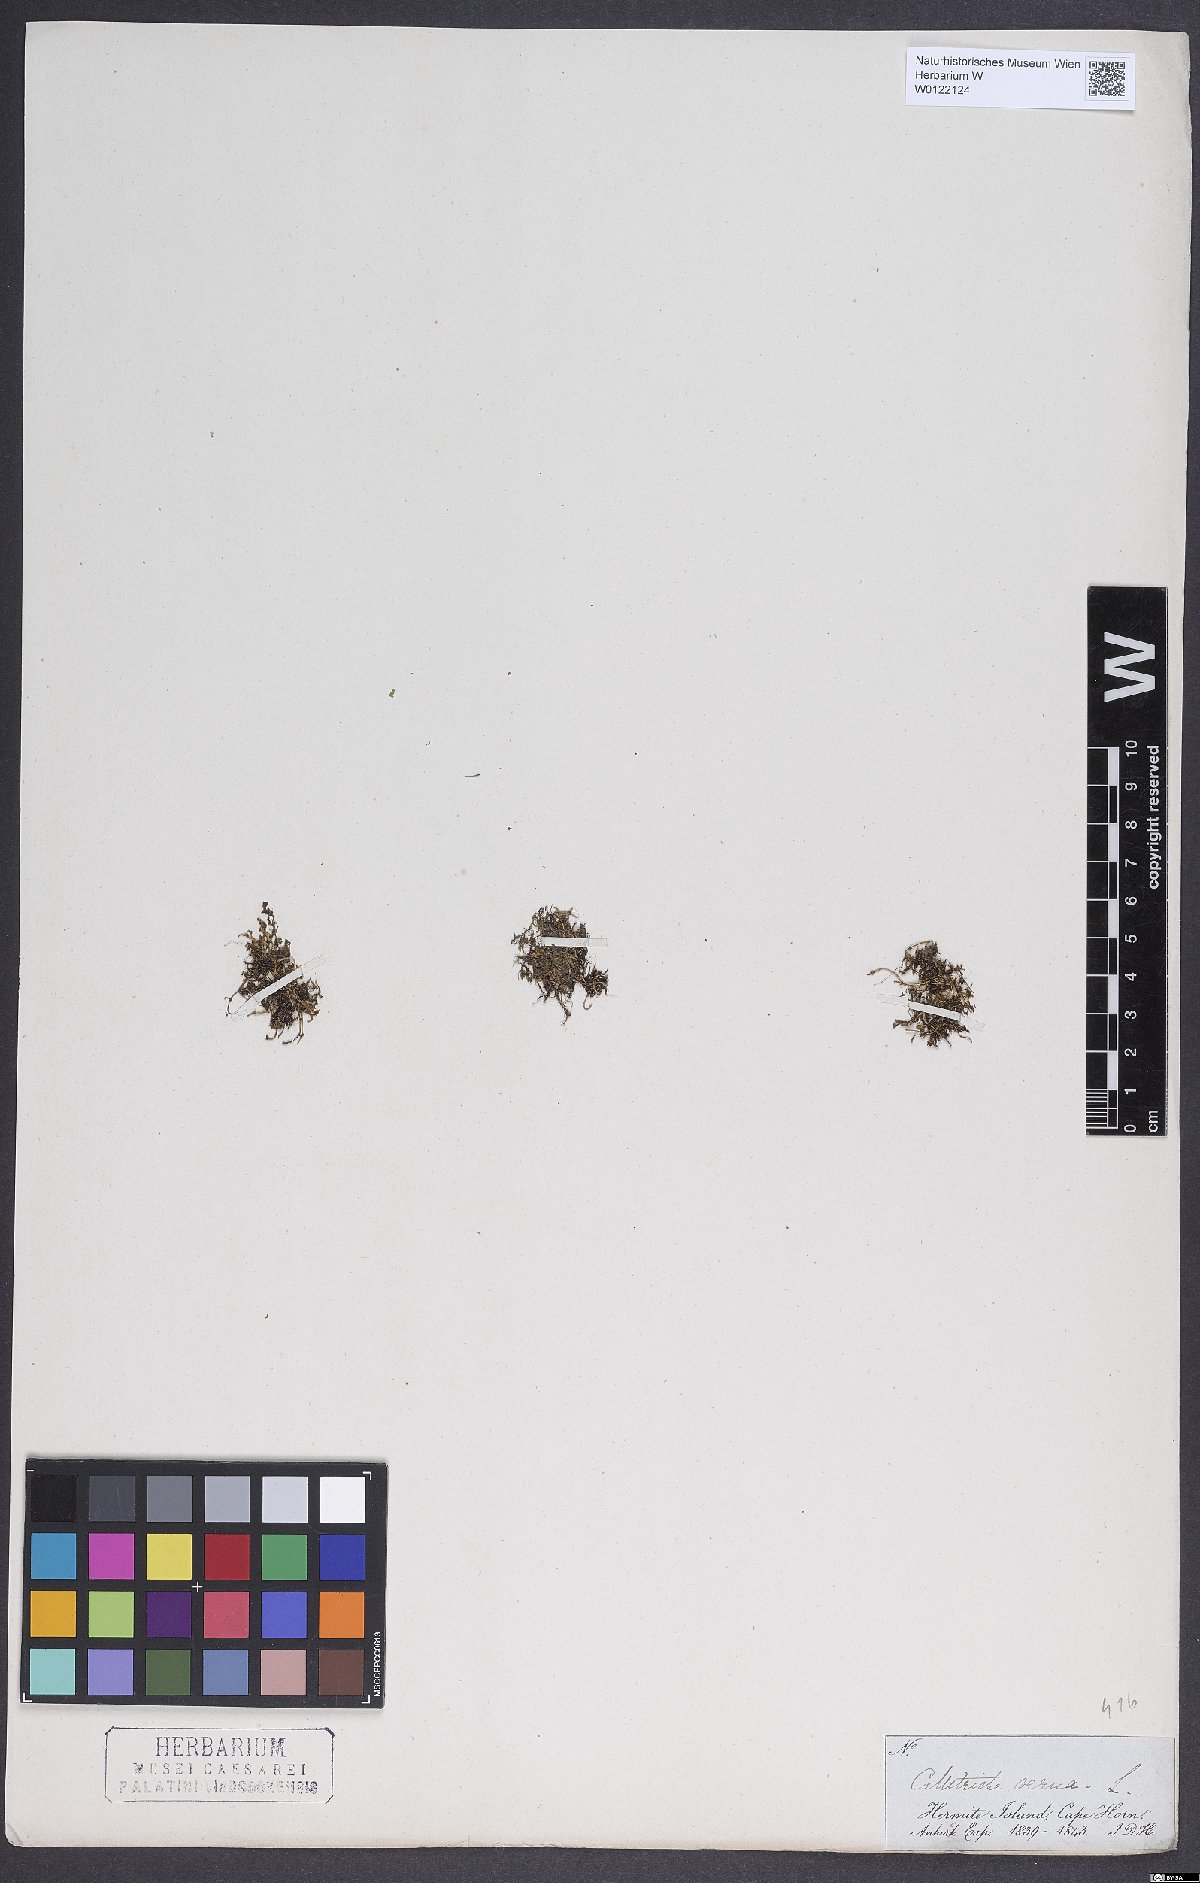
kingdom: Plantae
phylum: Tracheophyta
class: Magnoliopsida
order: Lamiales
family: Plantaginaceae
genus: Callitriche
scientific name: Callitriche obtusangula
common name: Blunt-fruited water-starwort
